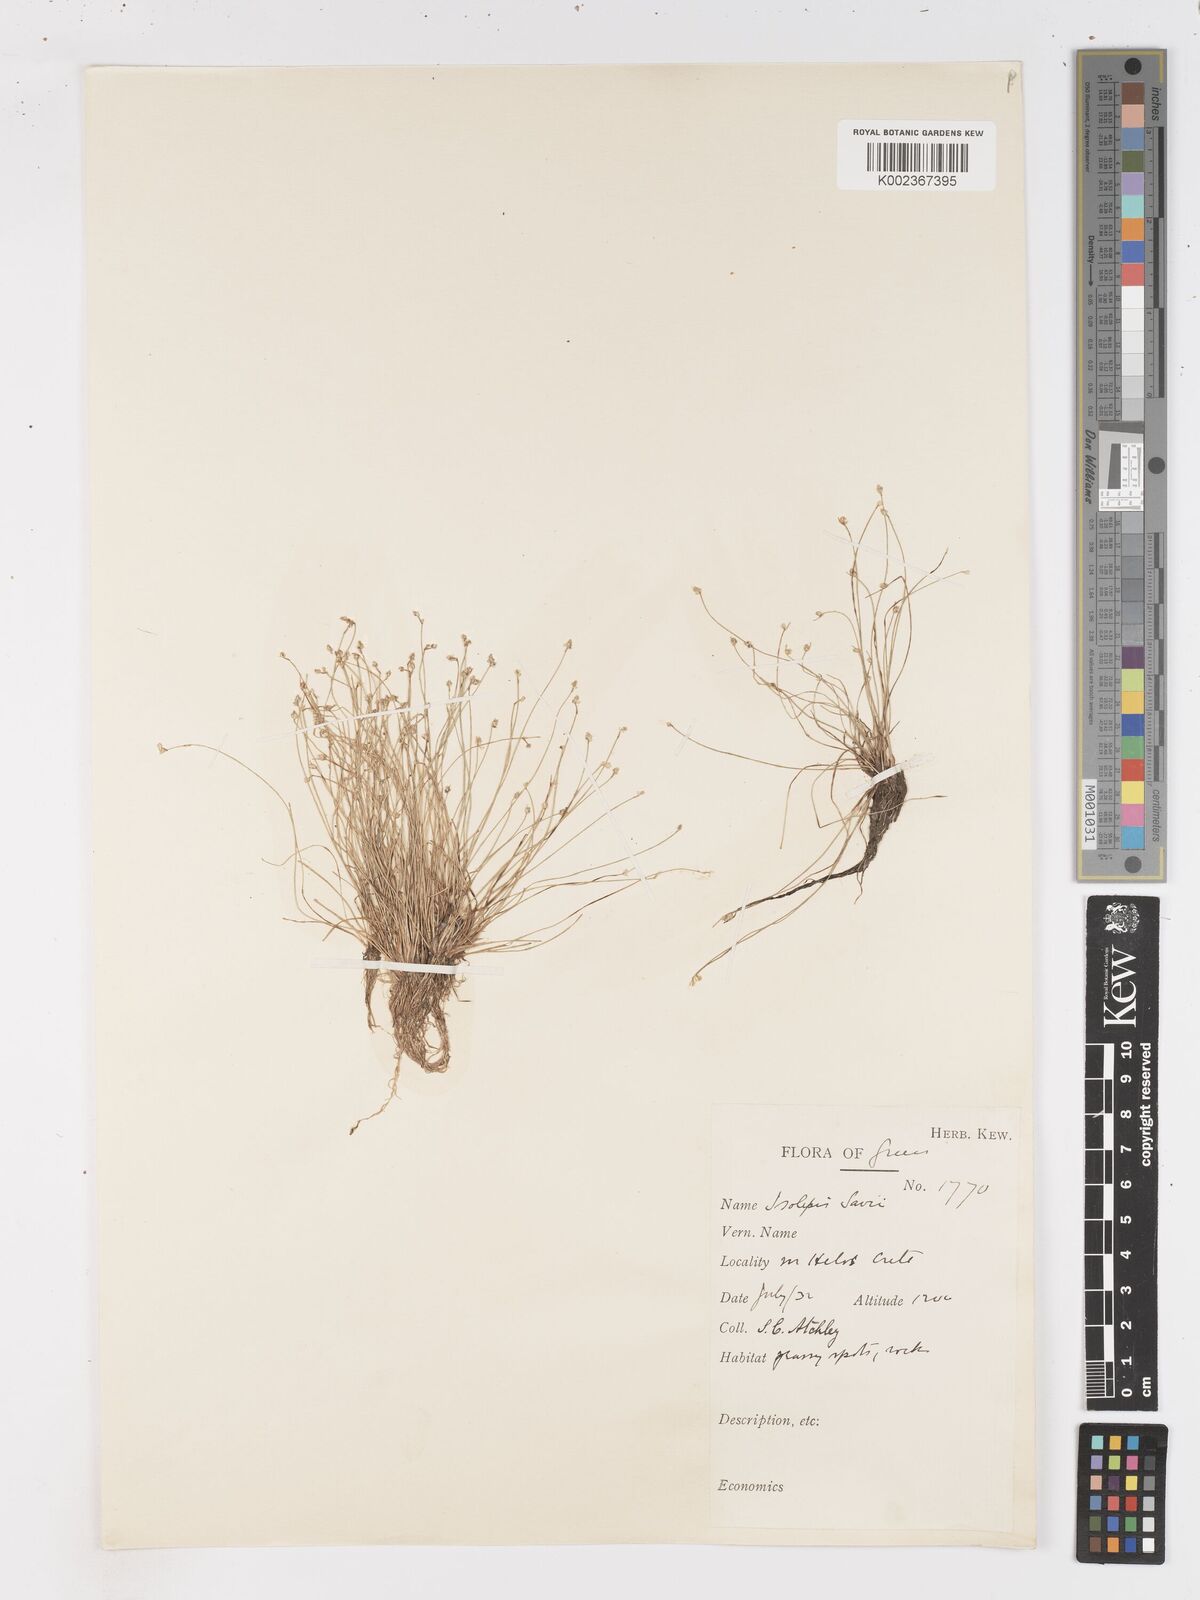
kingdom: Plantae
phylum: Tracheophyta
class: Liliopsida
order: Poales
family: Cyperaceae
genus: Isolepis
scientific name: Isolepis cernua
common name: Slender club-rush
